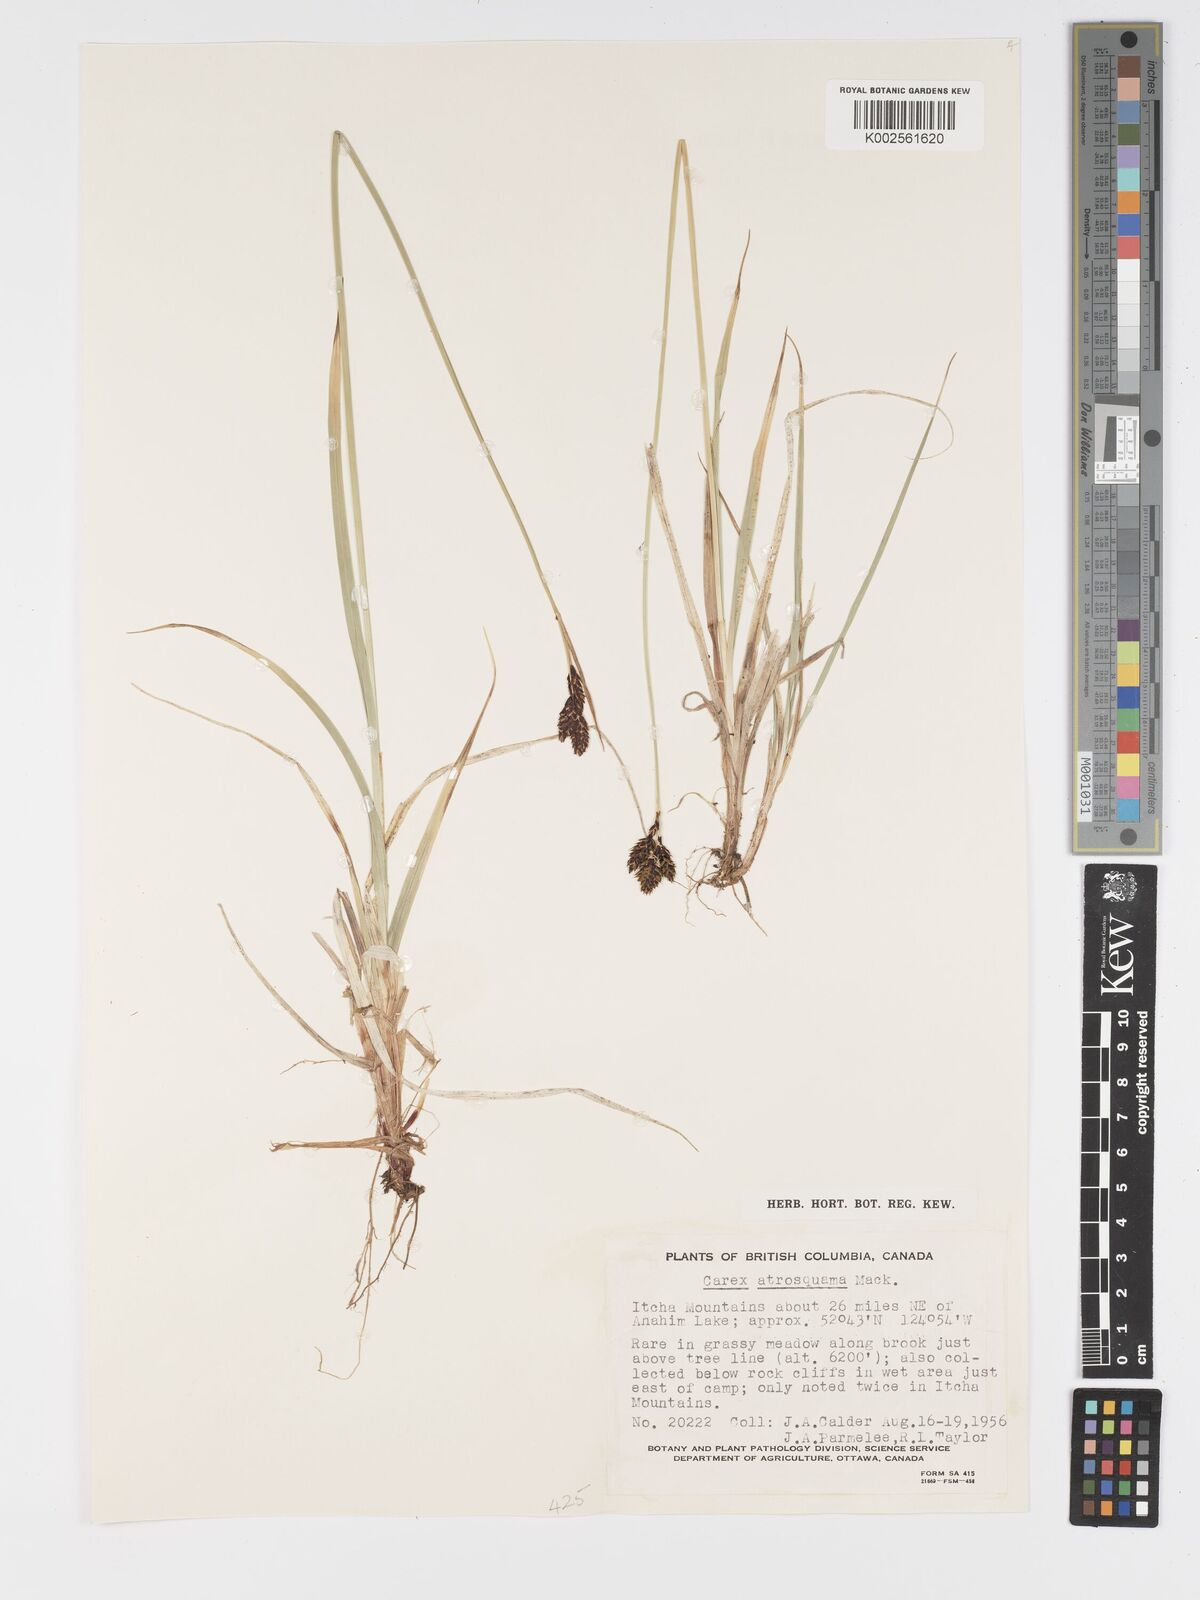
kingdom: Plantae
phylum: Tracheophyta
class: Liliopsida
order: Poales
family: Cyperaceae
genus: Carex
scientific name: Carex atrosquama
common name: Black-scale sedge
